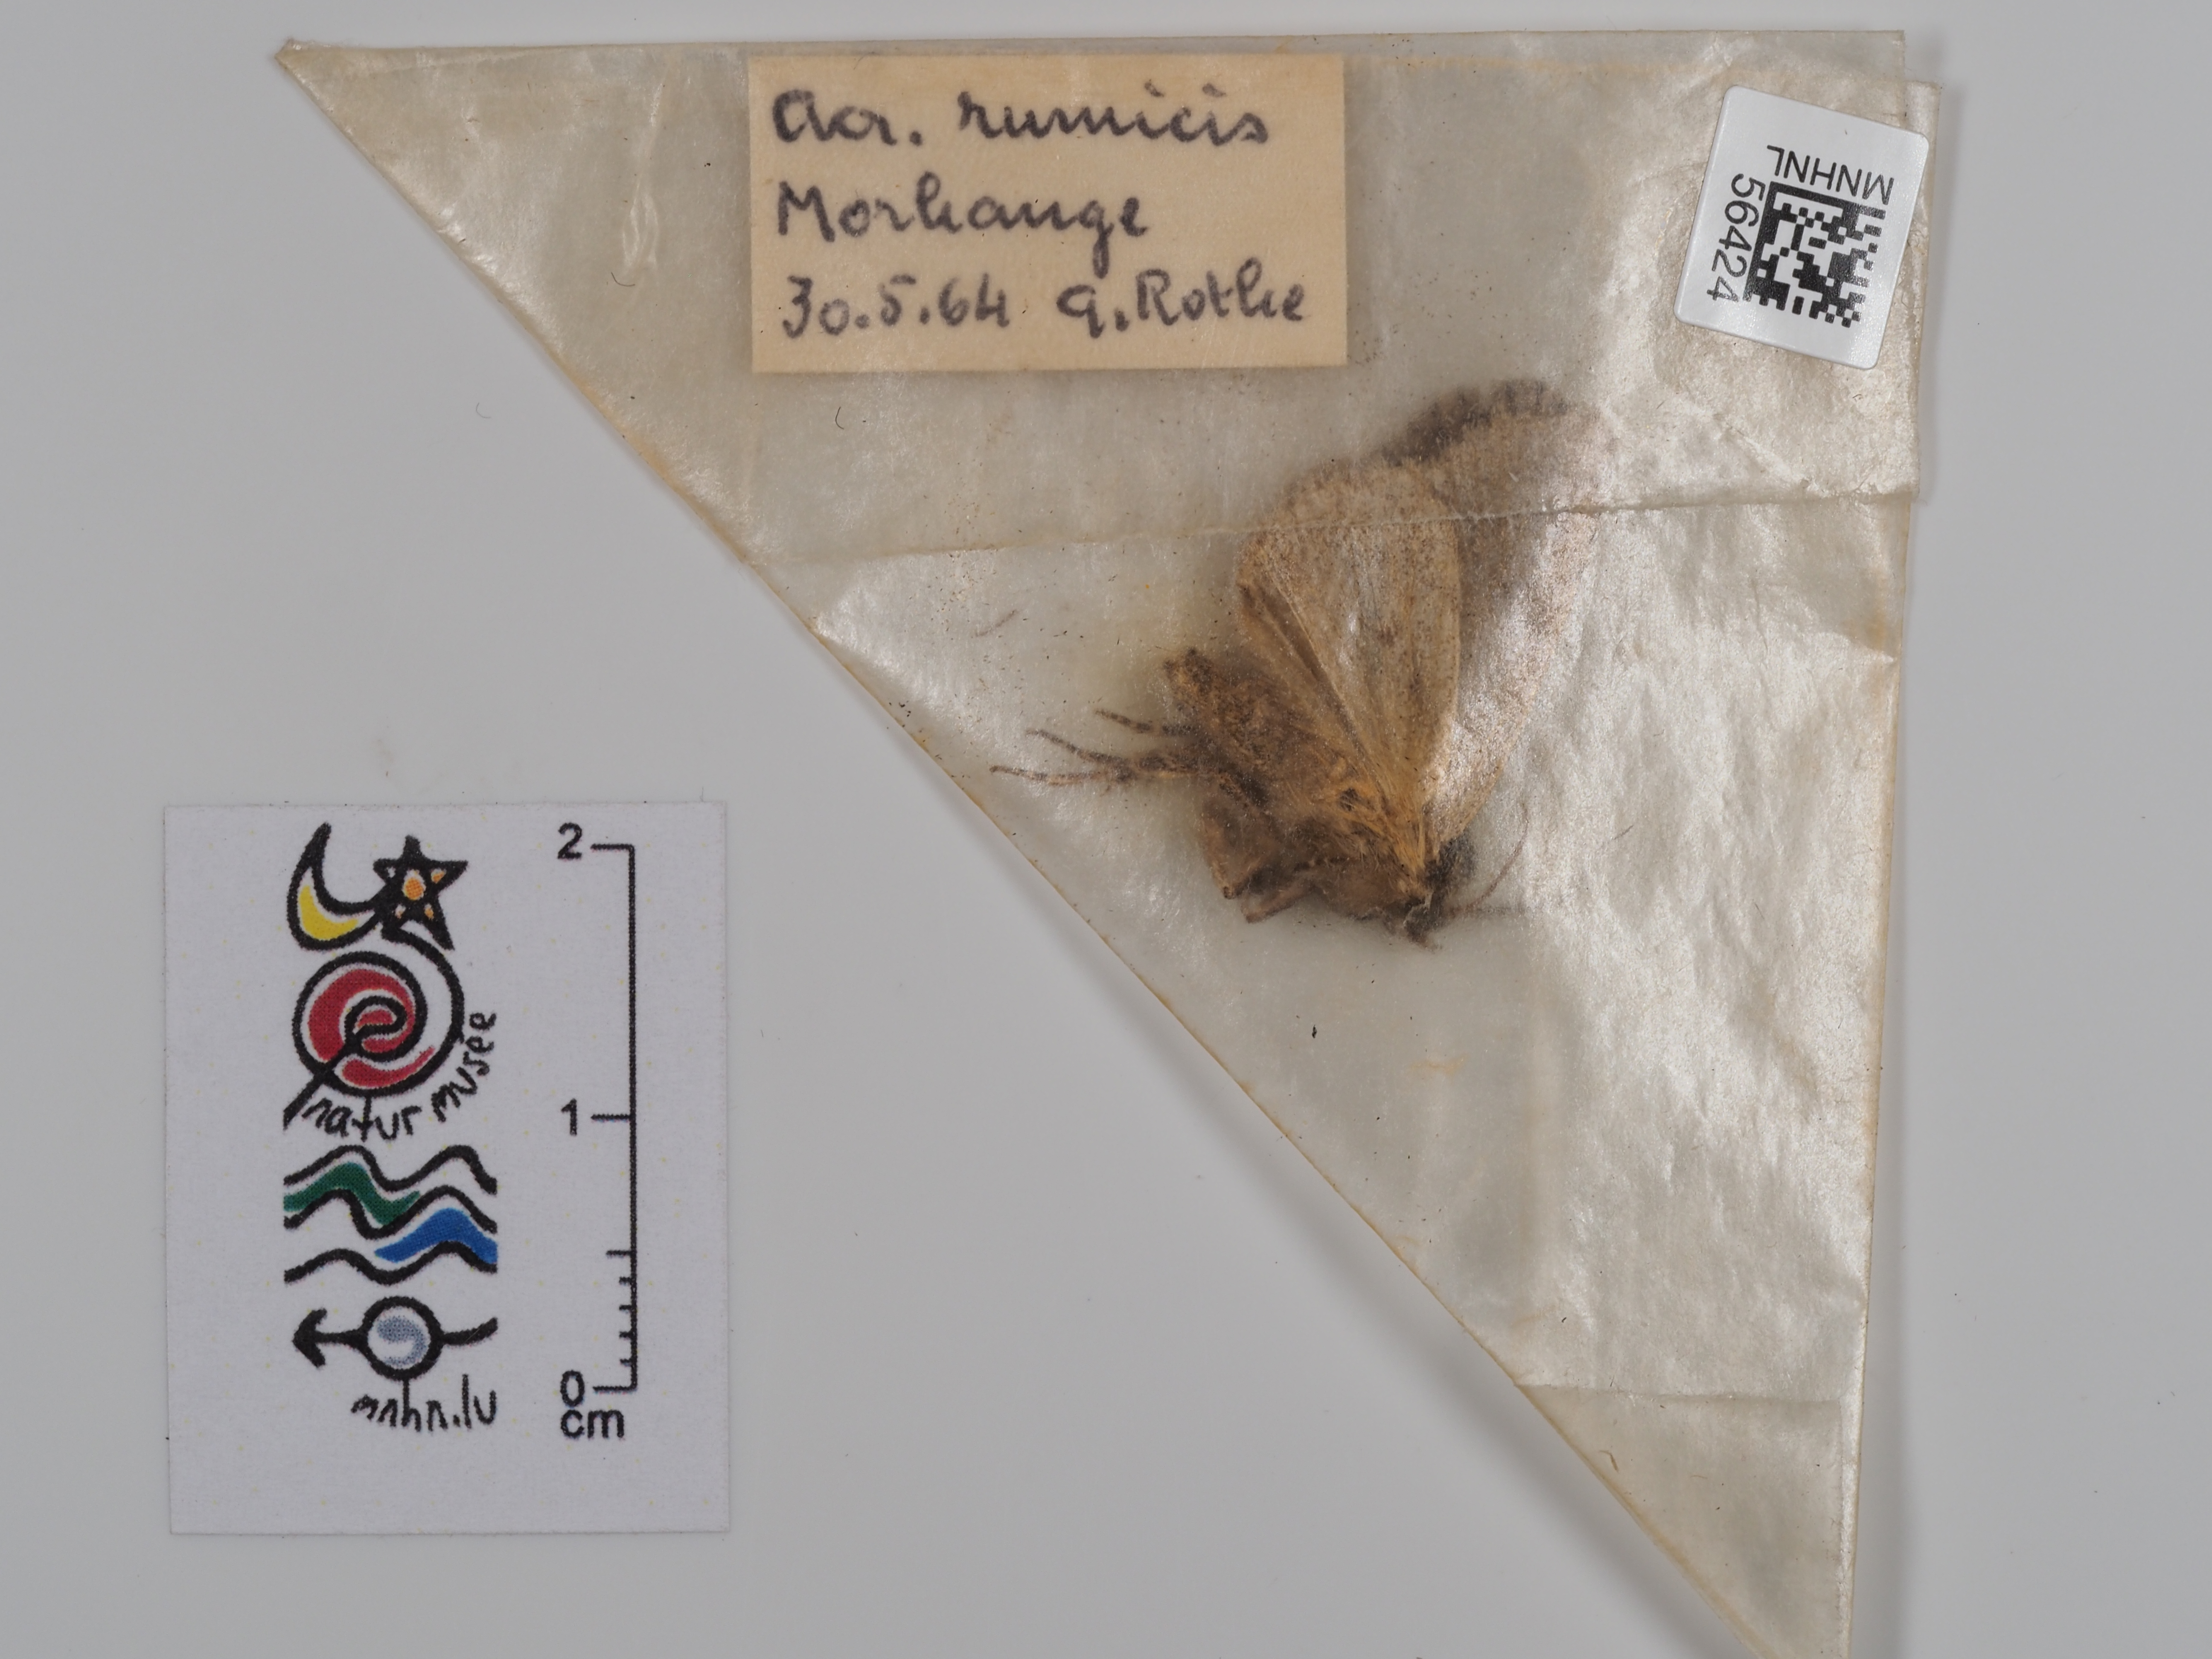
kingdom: Animalia
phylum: Arthropoda
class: Insecta
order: Lepidoptera
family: Noctuidae
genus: Acronicta
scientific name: Acronicta rumicis
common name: Knot grass
